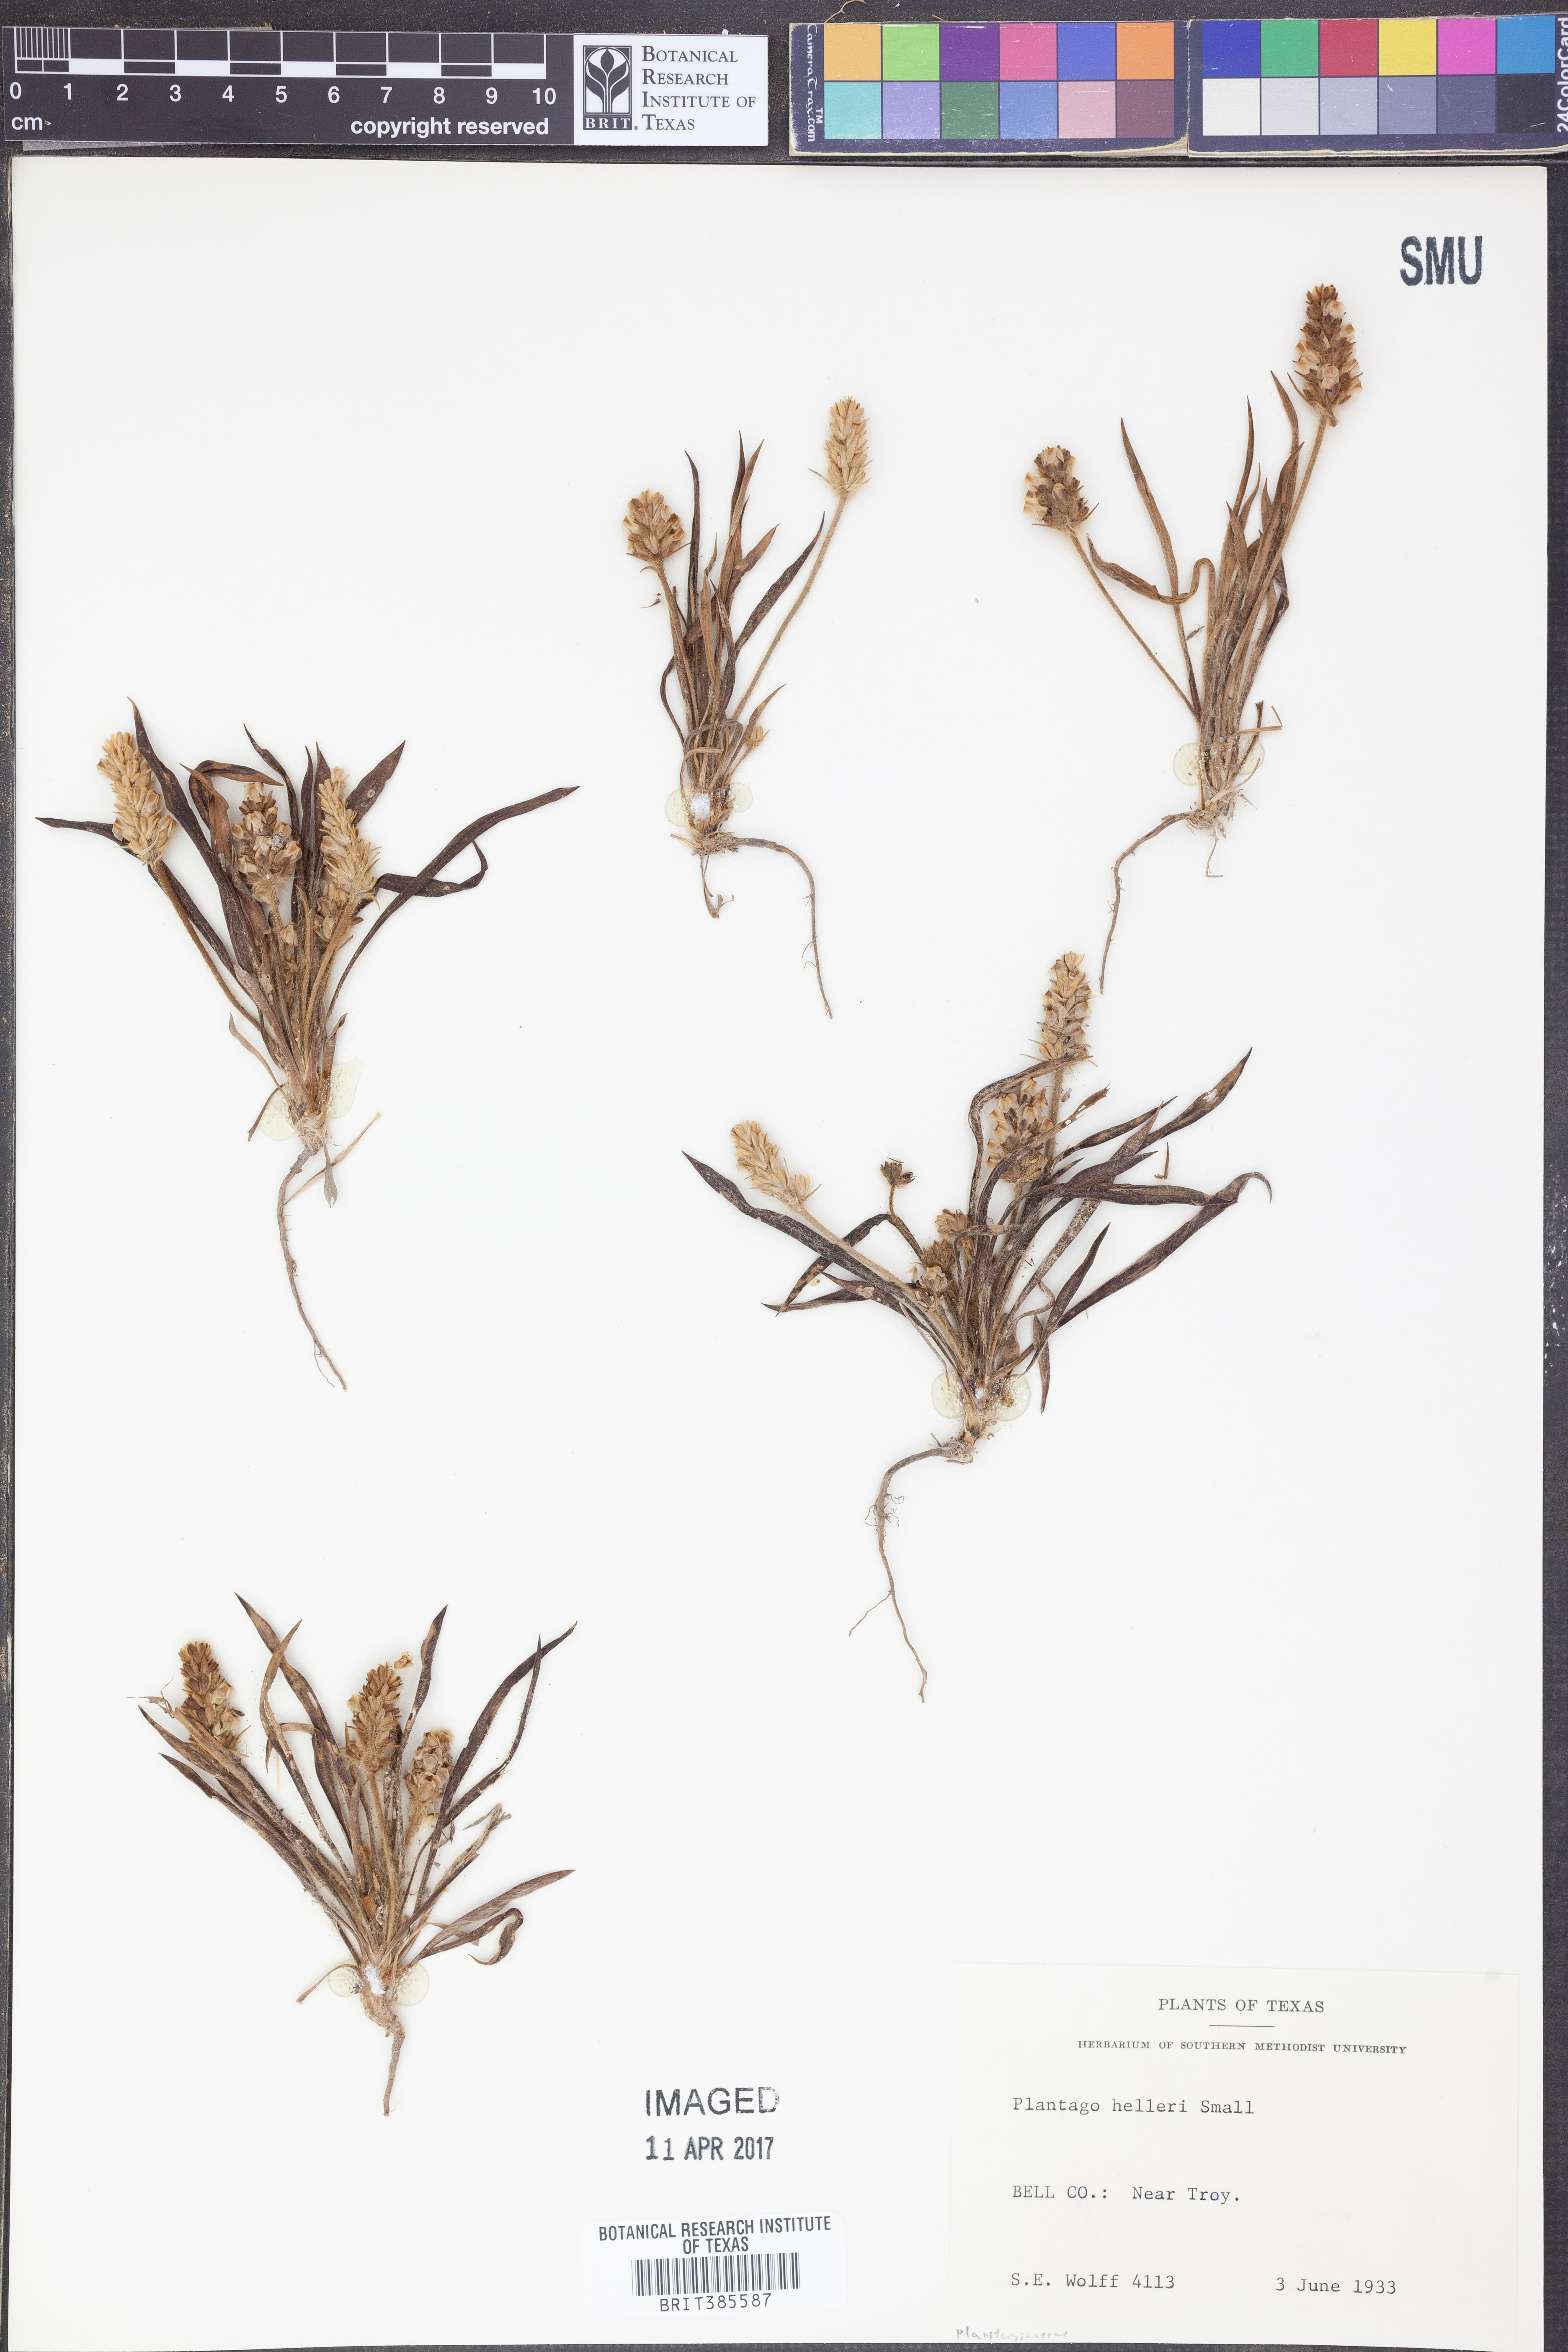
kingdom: Plantae
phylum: Tracheophyta
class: Magnoliopsida
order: Lamiales
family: Plantaginaceae
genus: Plantago
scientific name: Plantago helleri
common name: Heller's plantain
